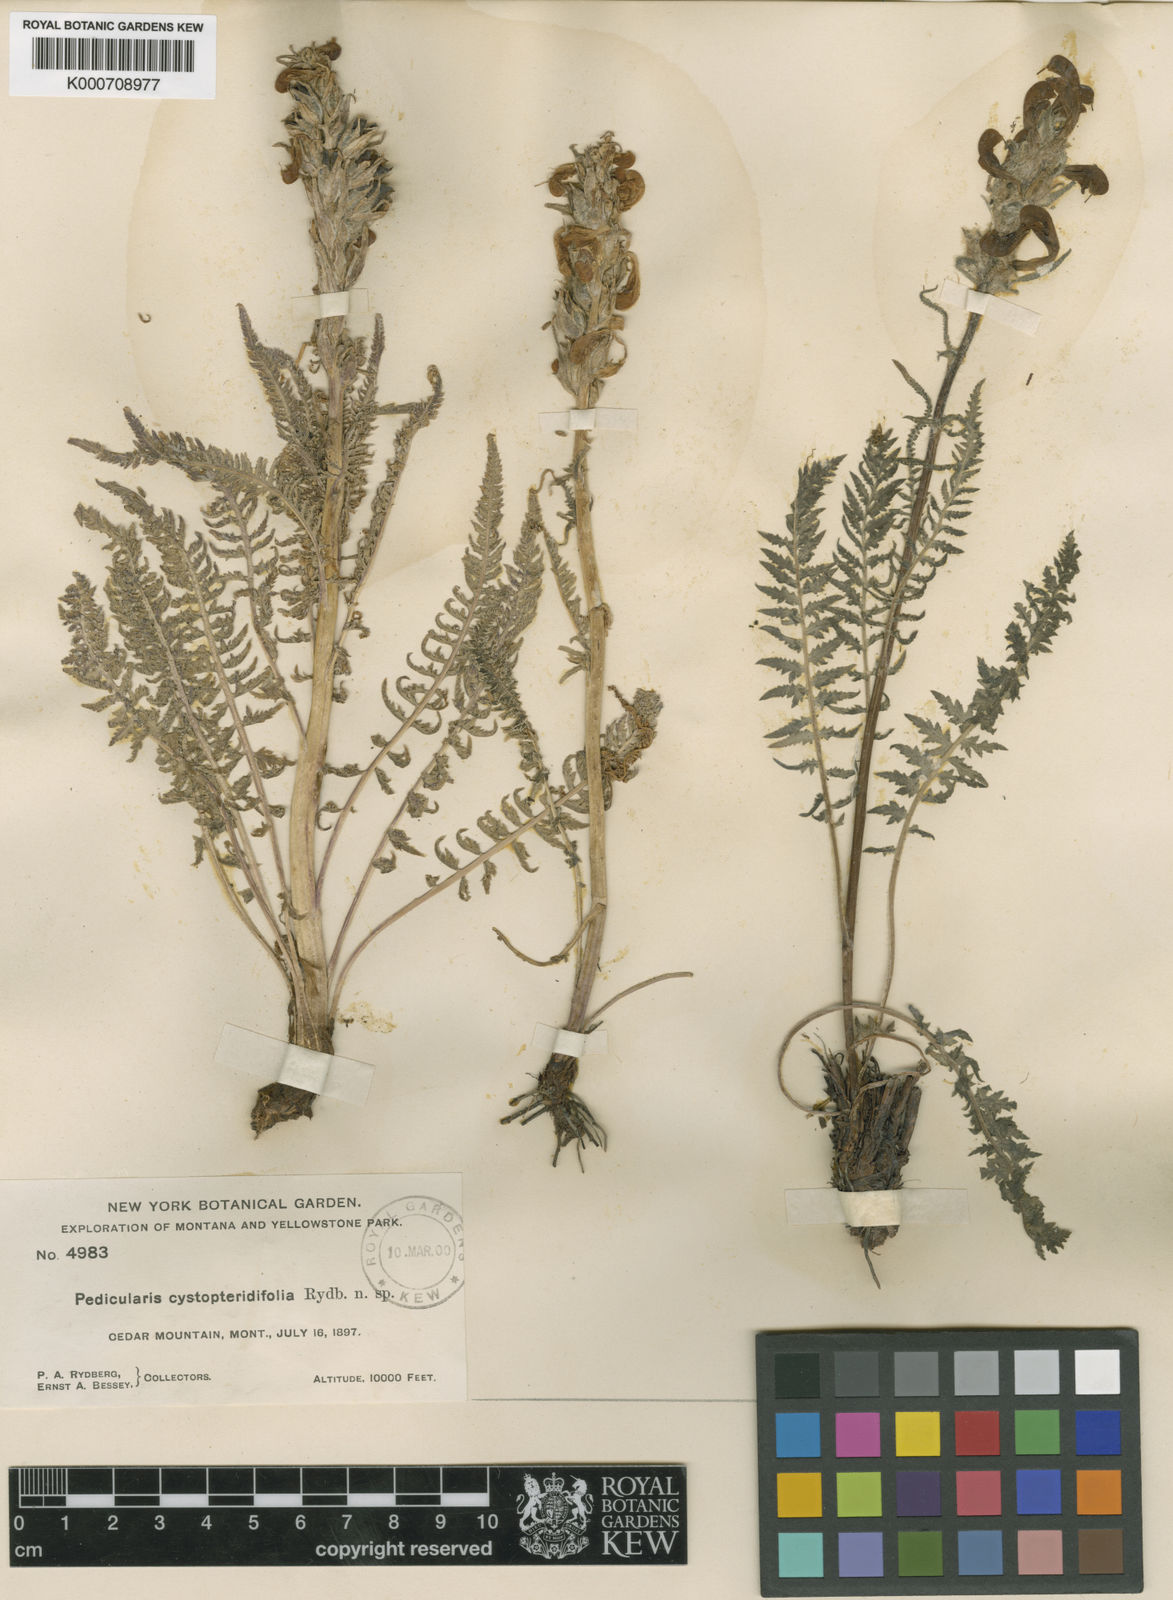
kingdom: Plantae
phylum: Tracheophyta
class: Magnoliopsida
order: Lamiales
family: Orobanchaceae
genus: Pedicularis
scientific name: Pedicularis cystopteridifolia
